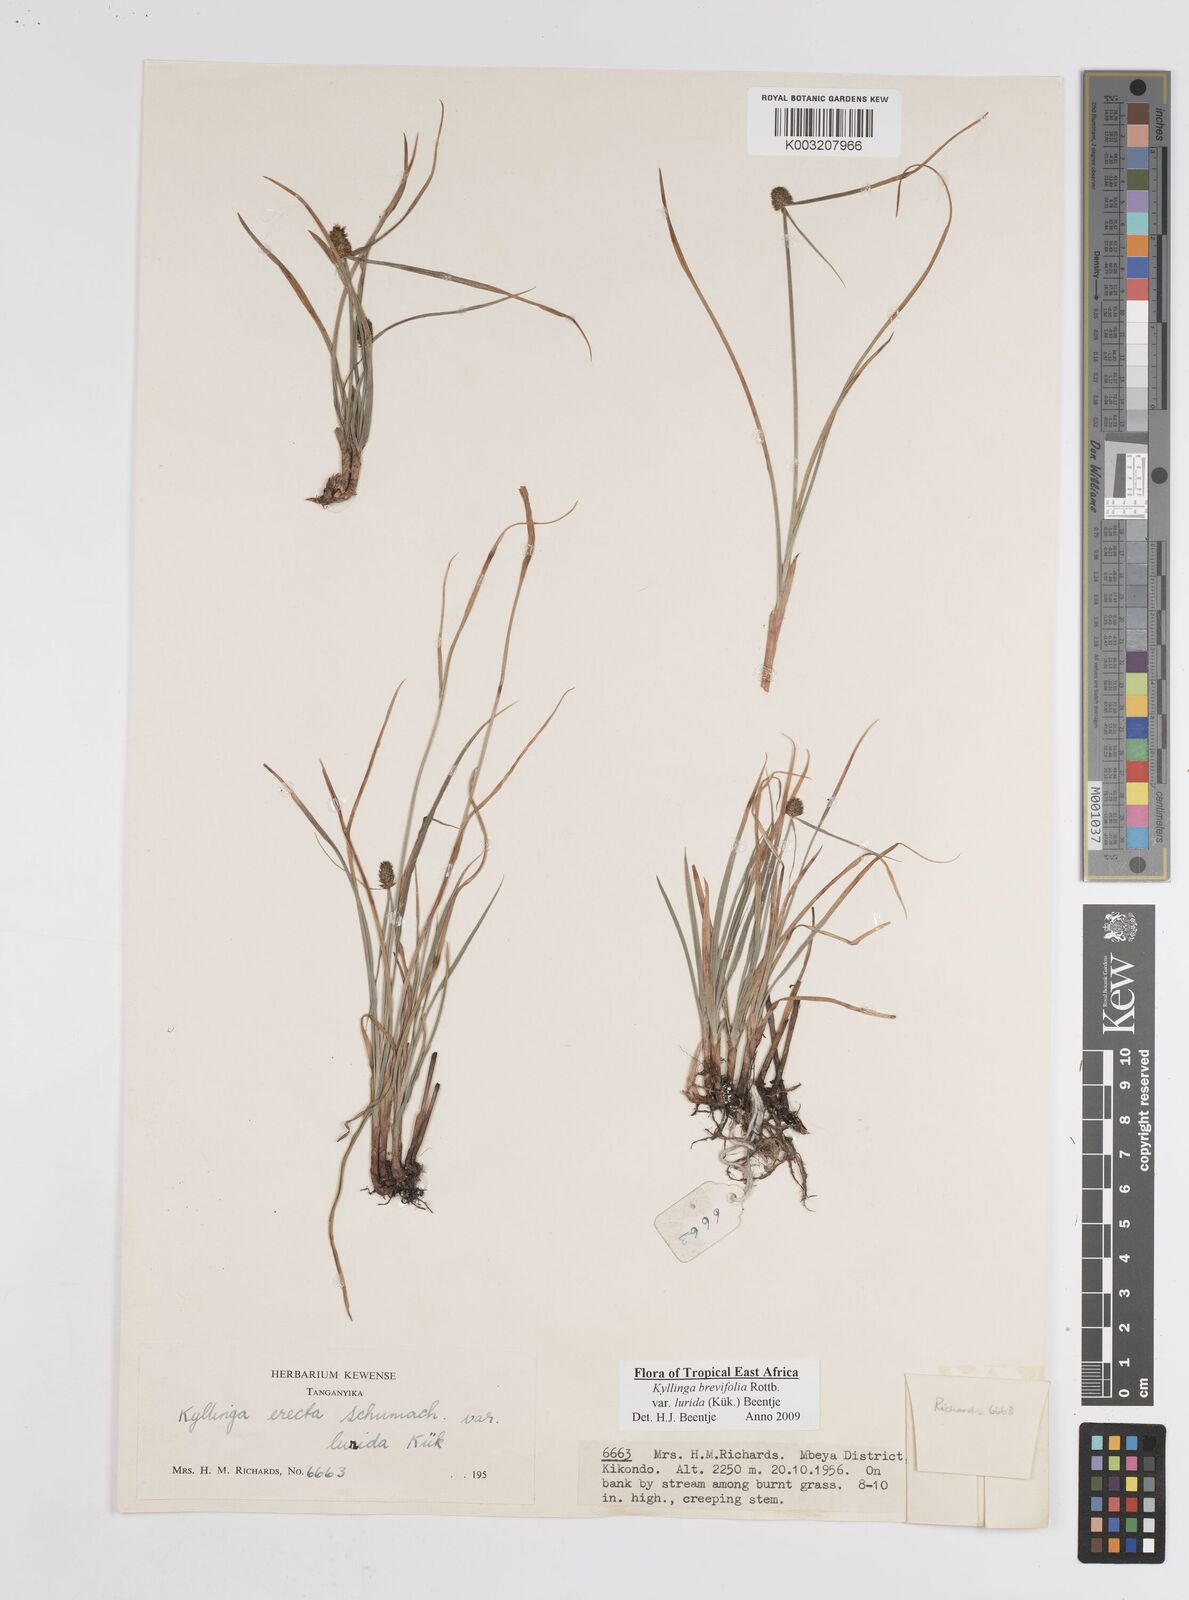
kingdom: Plantae
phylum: Tracheophyta
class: Liliopsida
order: Poales
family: Cyperaceae
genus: Cyperus
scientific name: Cyperus erectus
